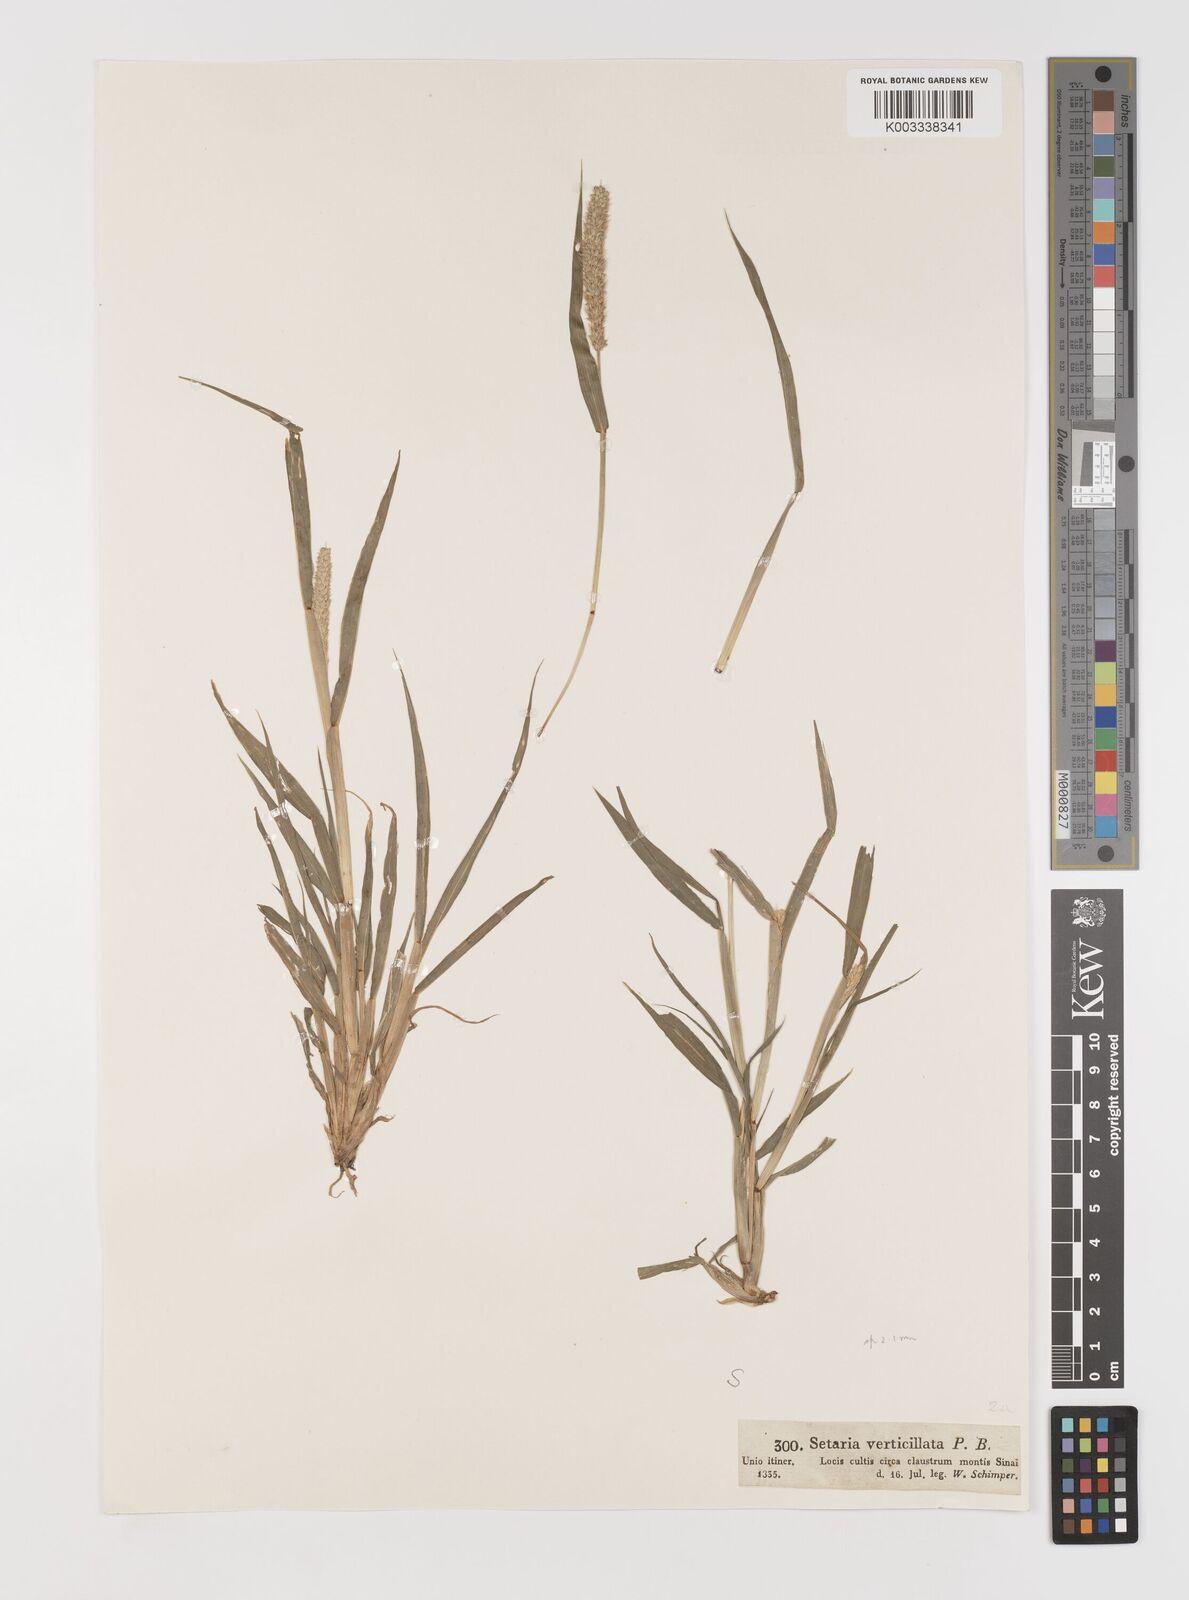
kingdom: Plantae
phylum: Tracheophyta
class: Liliopsida
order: Poales
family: Poaceae
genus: Setaria
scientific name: Setaria verticillata
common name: Hooked bristlegrass
